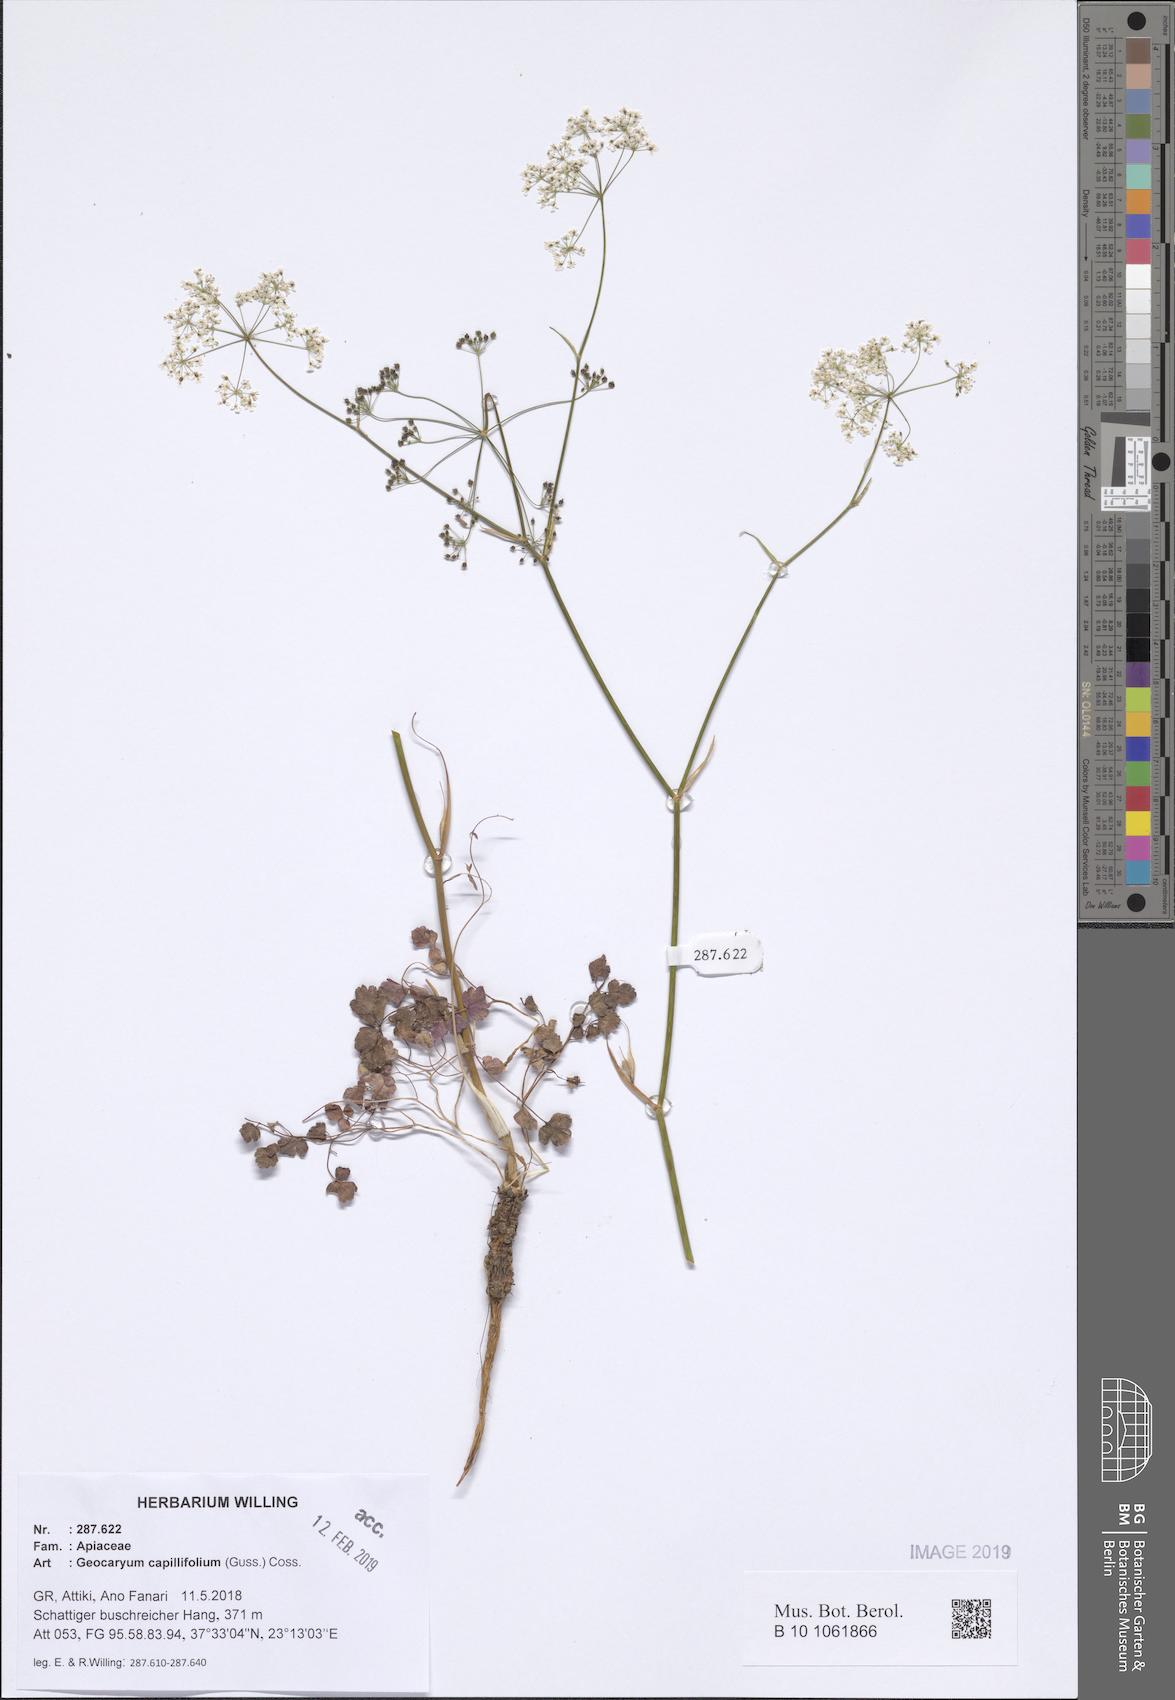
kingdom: Plantae
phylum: Tracheophyta
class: Magnoliopsida
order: Apiales
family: Apiaceae
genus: Geocaryum
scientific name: Geocaryum capillifolium
